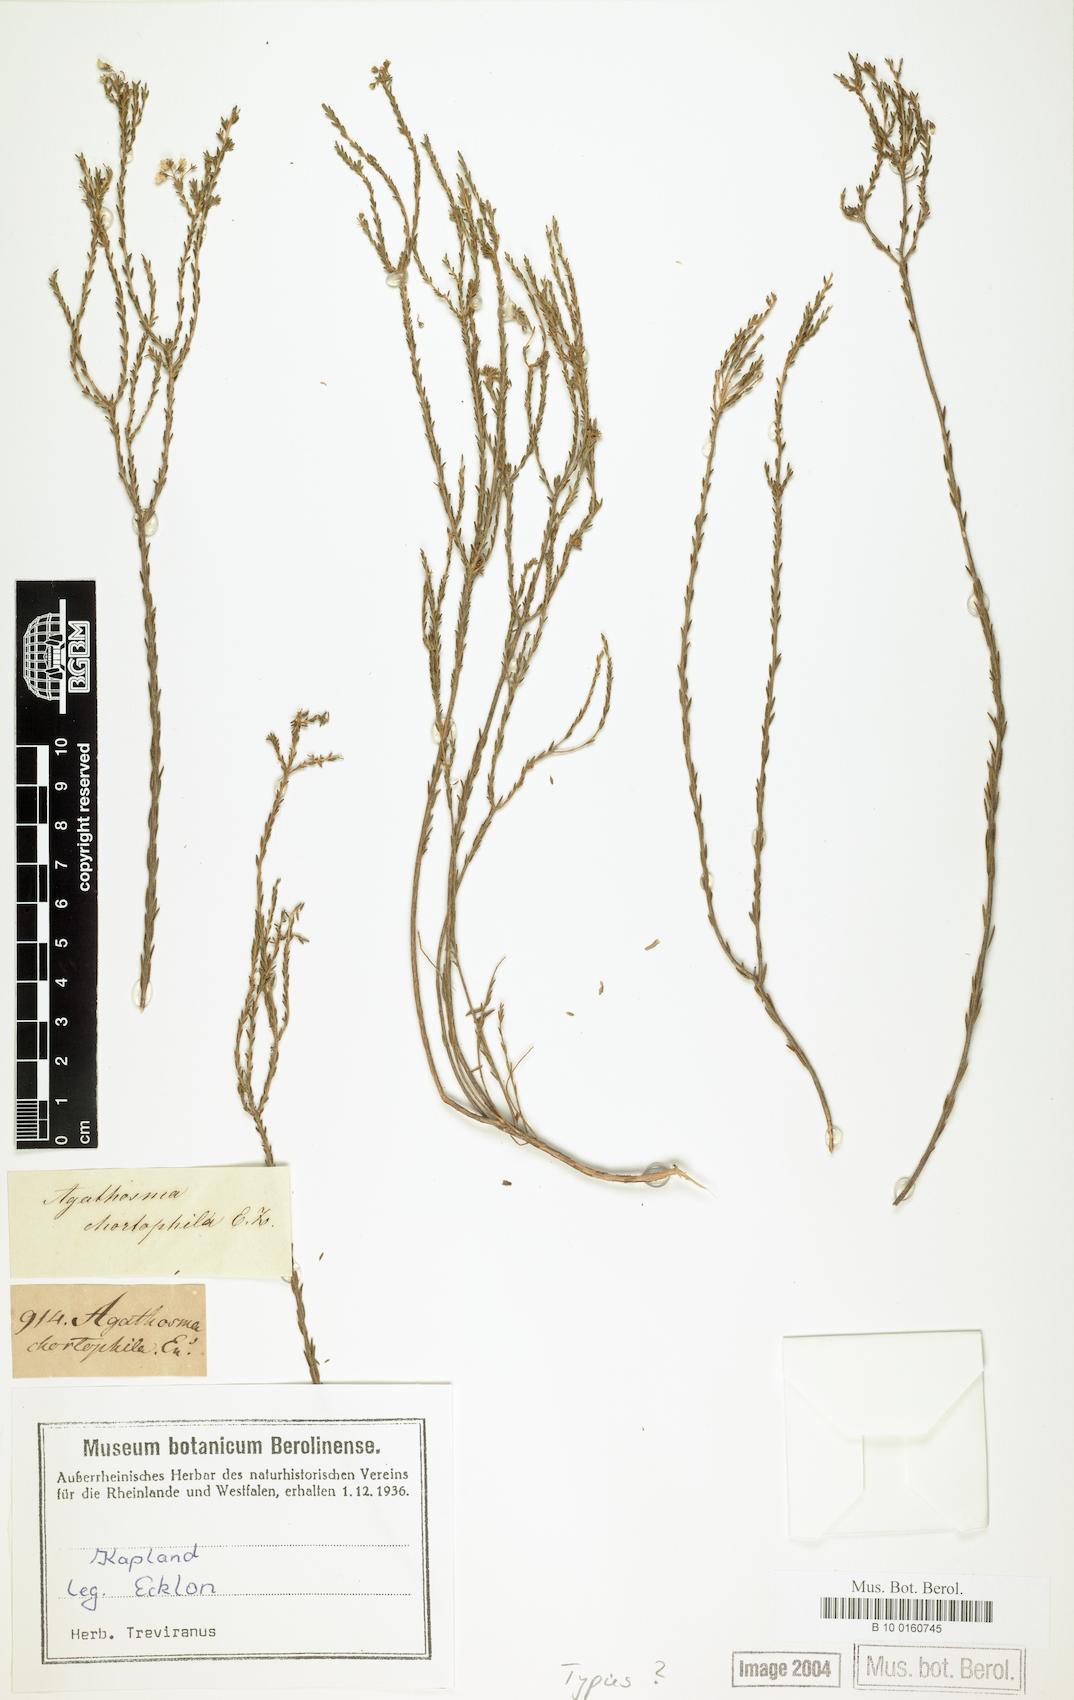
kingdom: Plantae
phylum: Tracheophyta
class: Magnoliopsida
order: Sapindales
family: Rutaceae
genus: Agathosma
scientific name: Agathosma capensis
